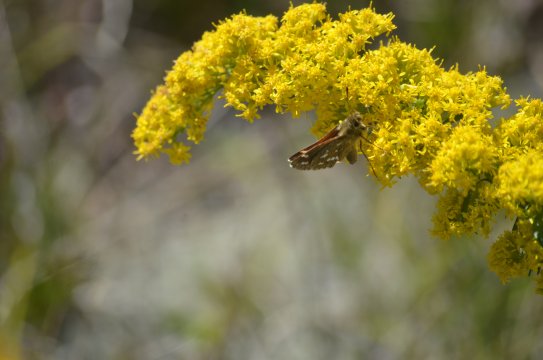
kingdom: Animalia
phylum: Arthropoda
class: Insecta
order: Lepidoptera
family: Hesperiidae
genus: Hesperia
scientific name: Hesperia comma
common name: Common Branded Skipper
